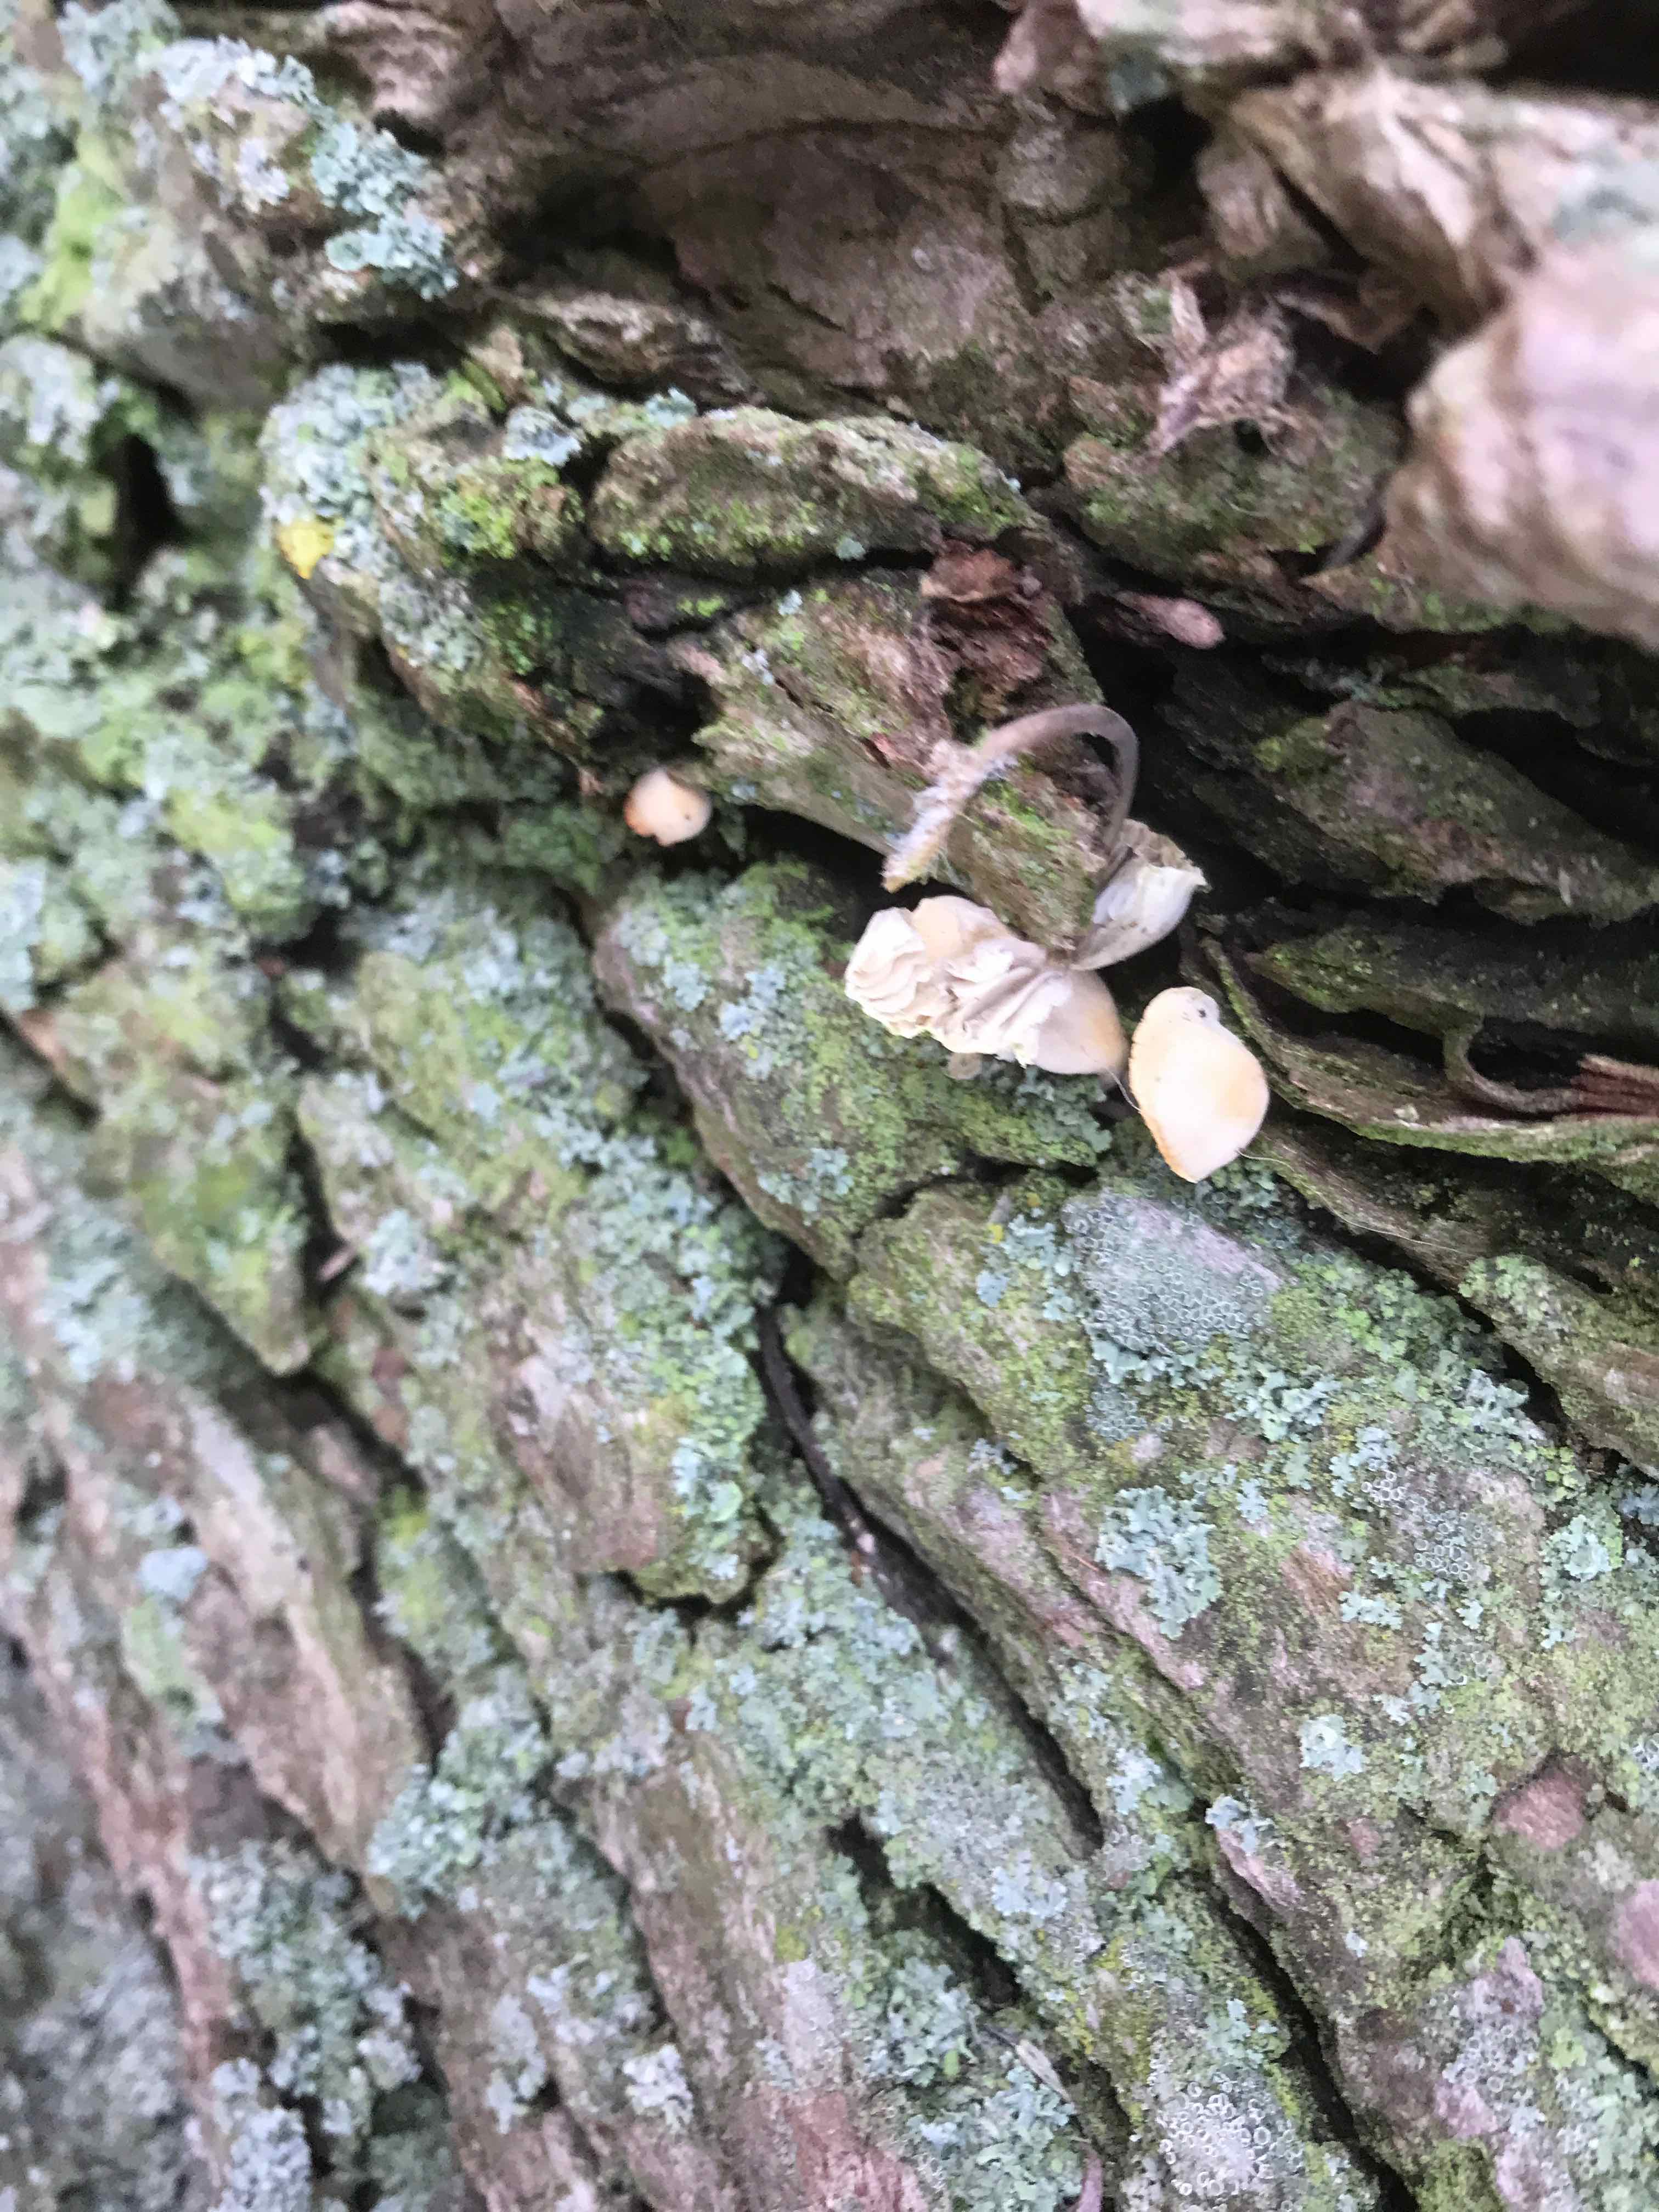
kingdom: Fungi
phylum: Basidiomycota
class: Agaricomycetes
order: Agaricales
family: Mycenaceae
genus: Mycena
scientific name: Mycena
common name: huesvamp
